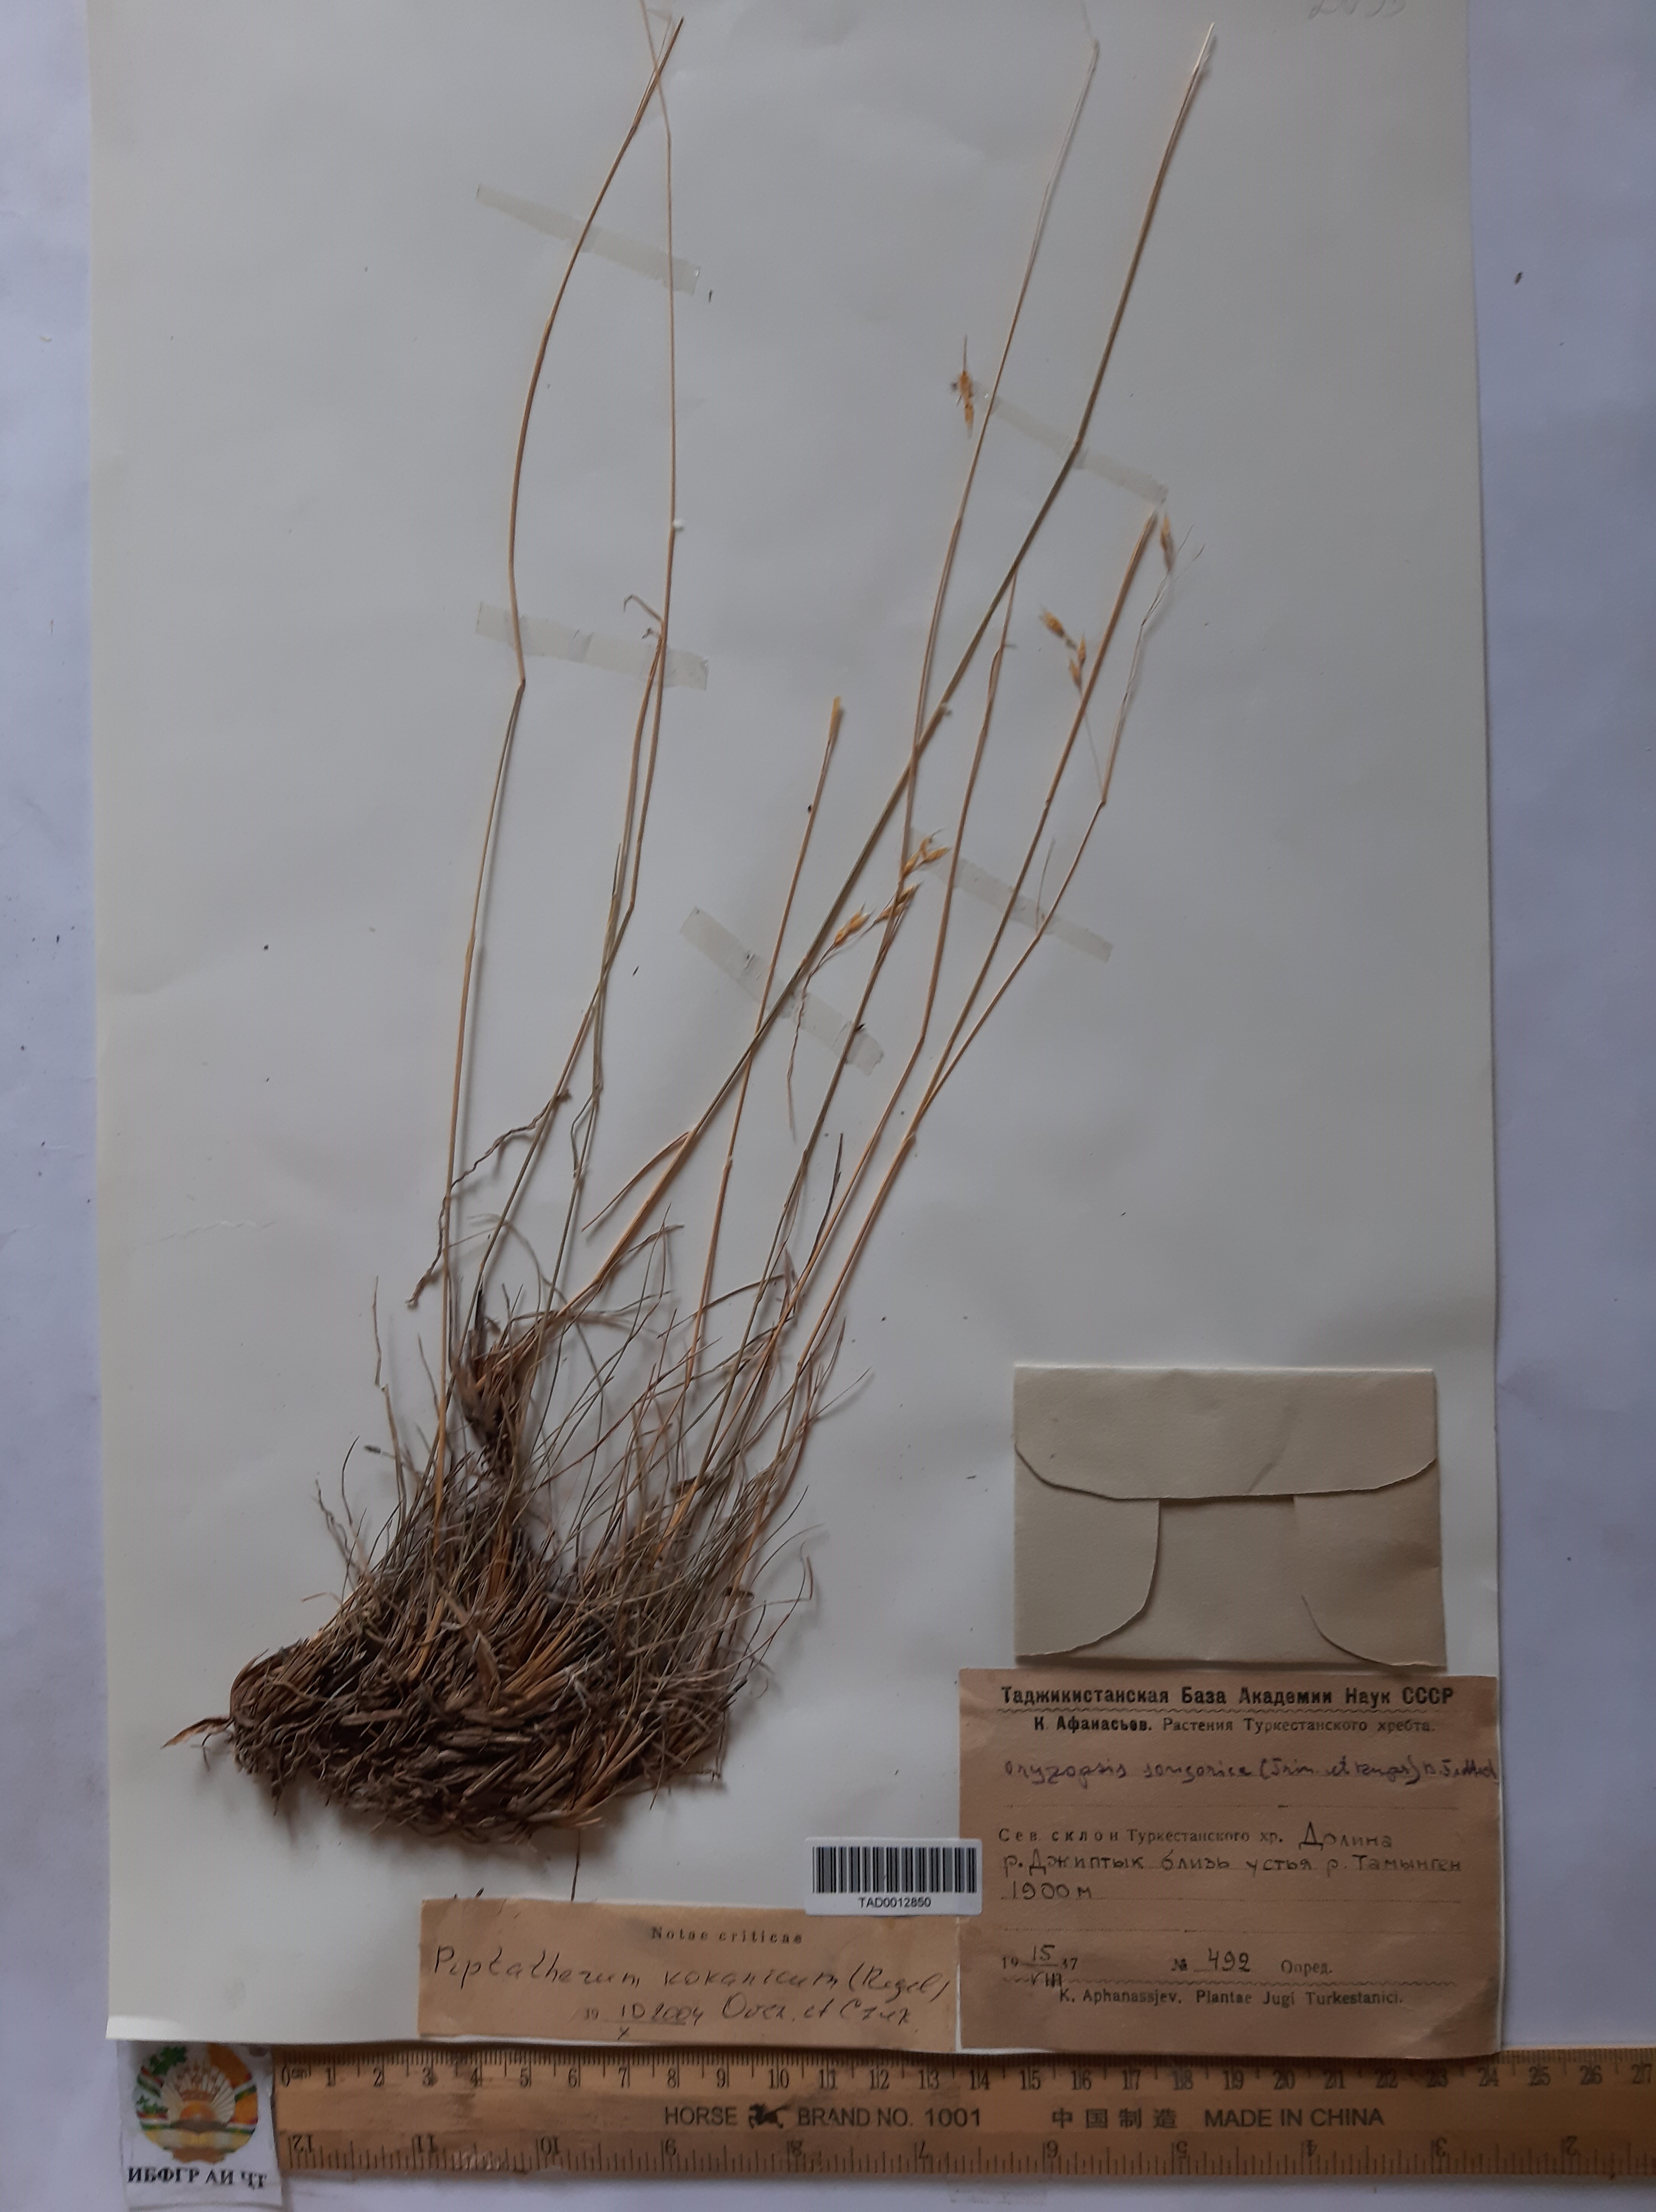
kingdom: Plantae
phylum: Tracheophyta
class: Liliopsida
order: Poales
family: Poaceae
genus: Piptatherum
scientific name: Piptatherum songaricum
